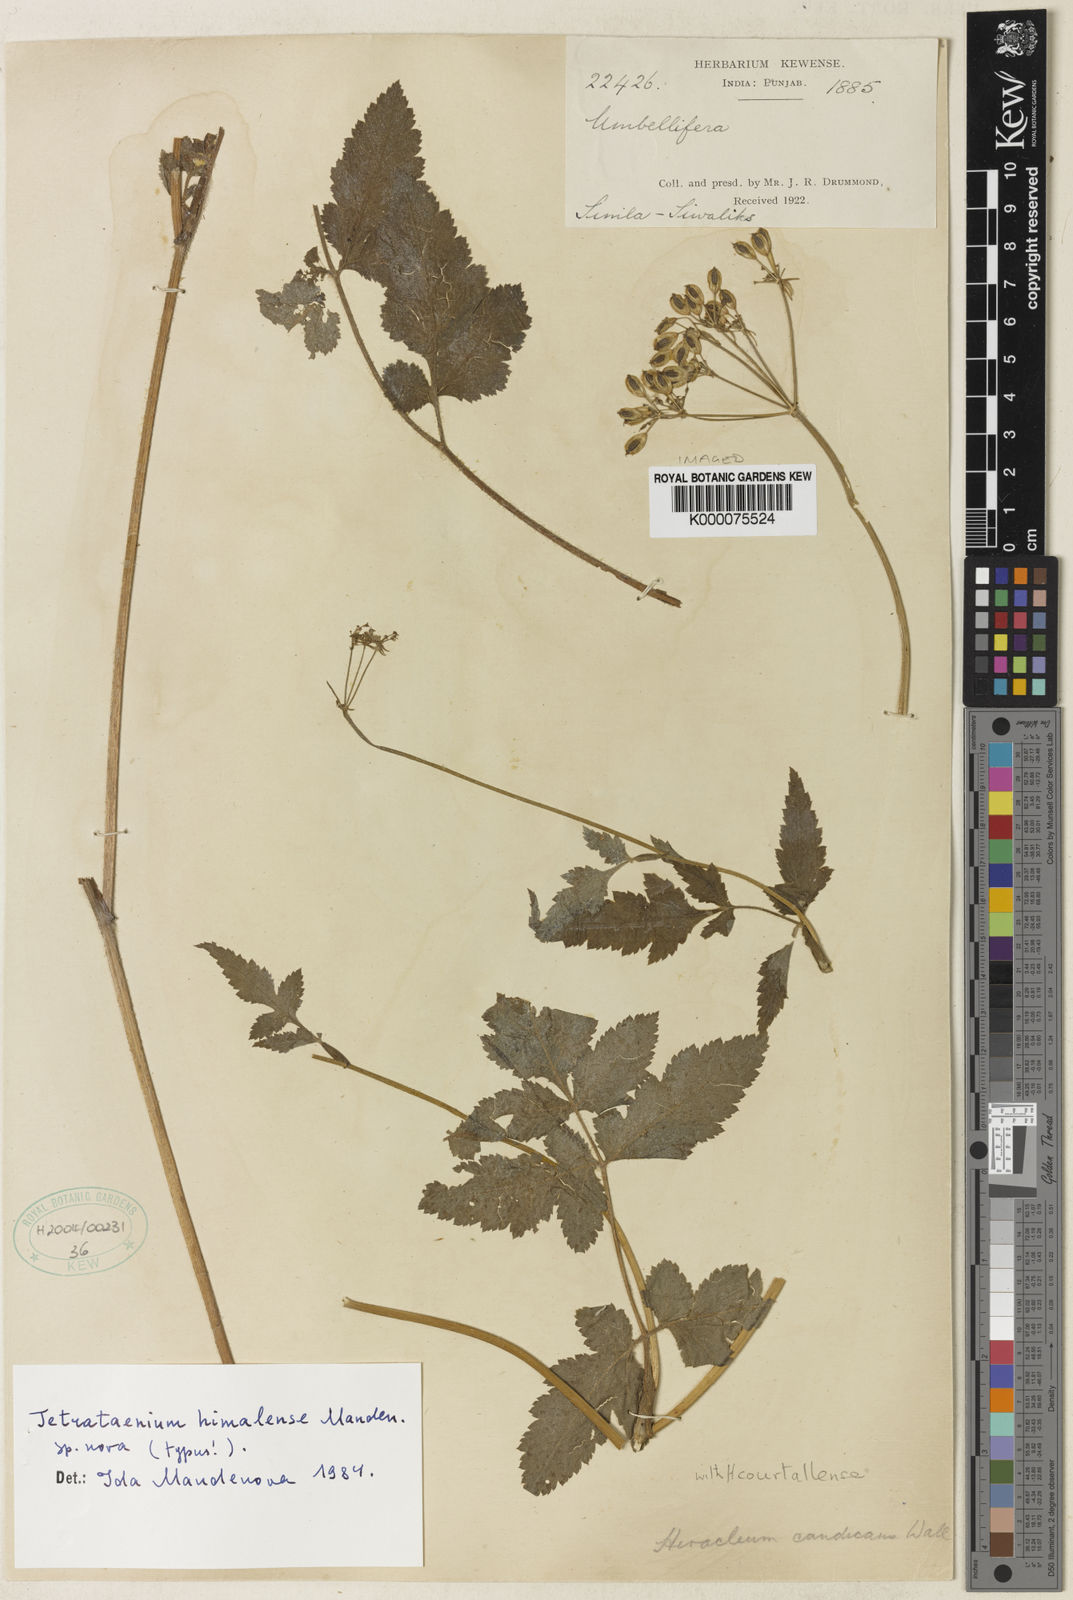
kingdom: Plantae
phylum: Tracheophyta
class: Magnoliopsida
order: Apiales
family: Apiaceae
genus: Tordyliopsis
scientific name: Tordyliopsis brunonis
